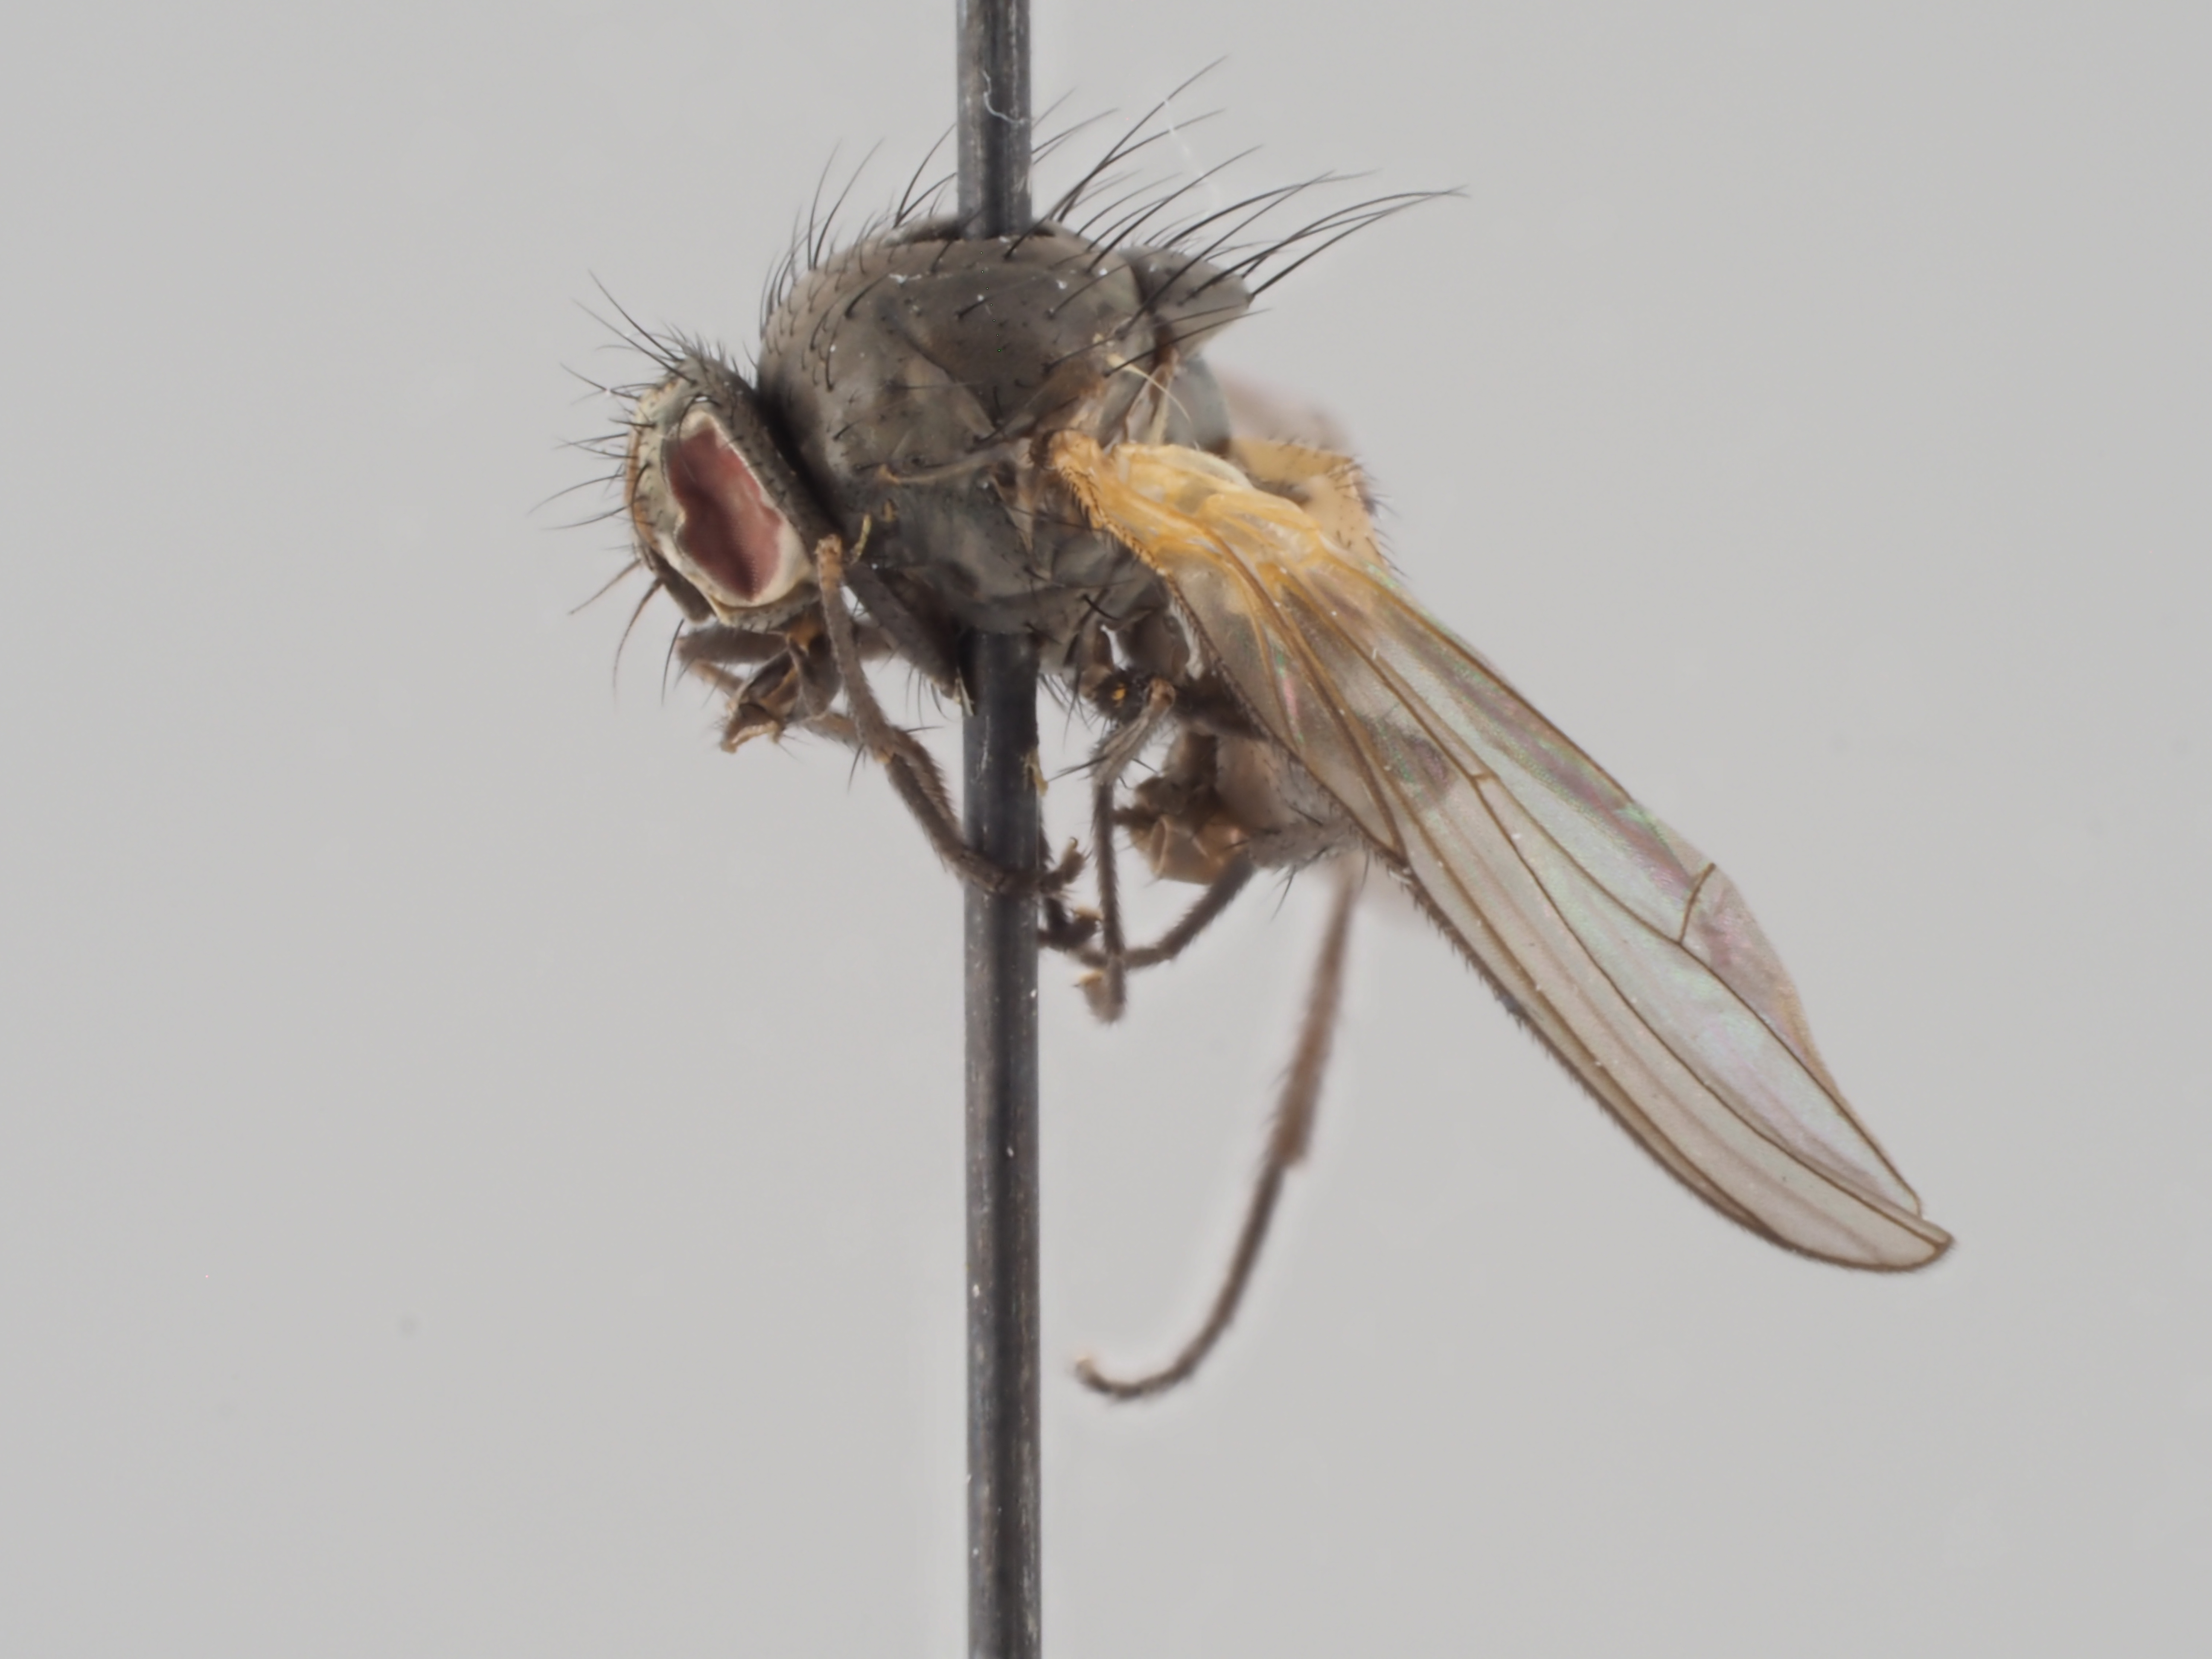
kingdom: Animalia
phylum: Arthropoda
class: Insecta
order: Diptera
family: Fanniidae
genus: Fannia
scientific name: Fannia subpellucens
